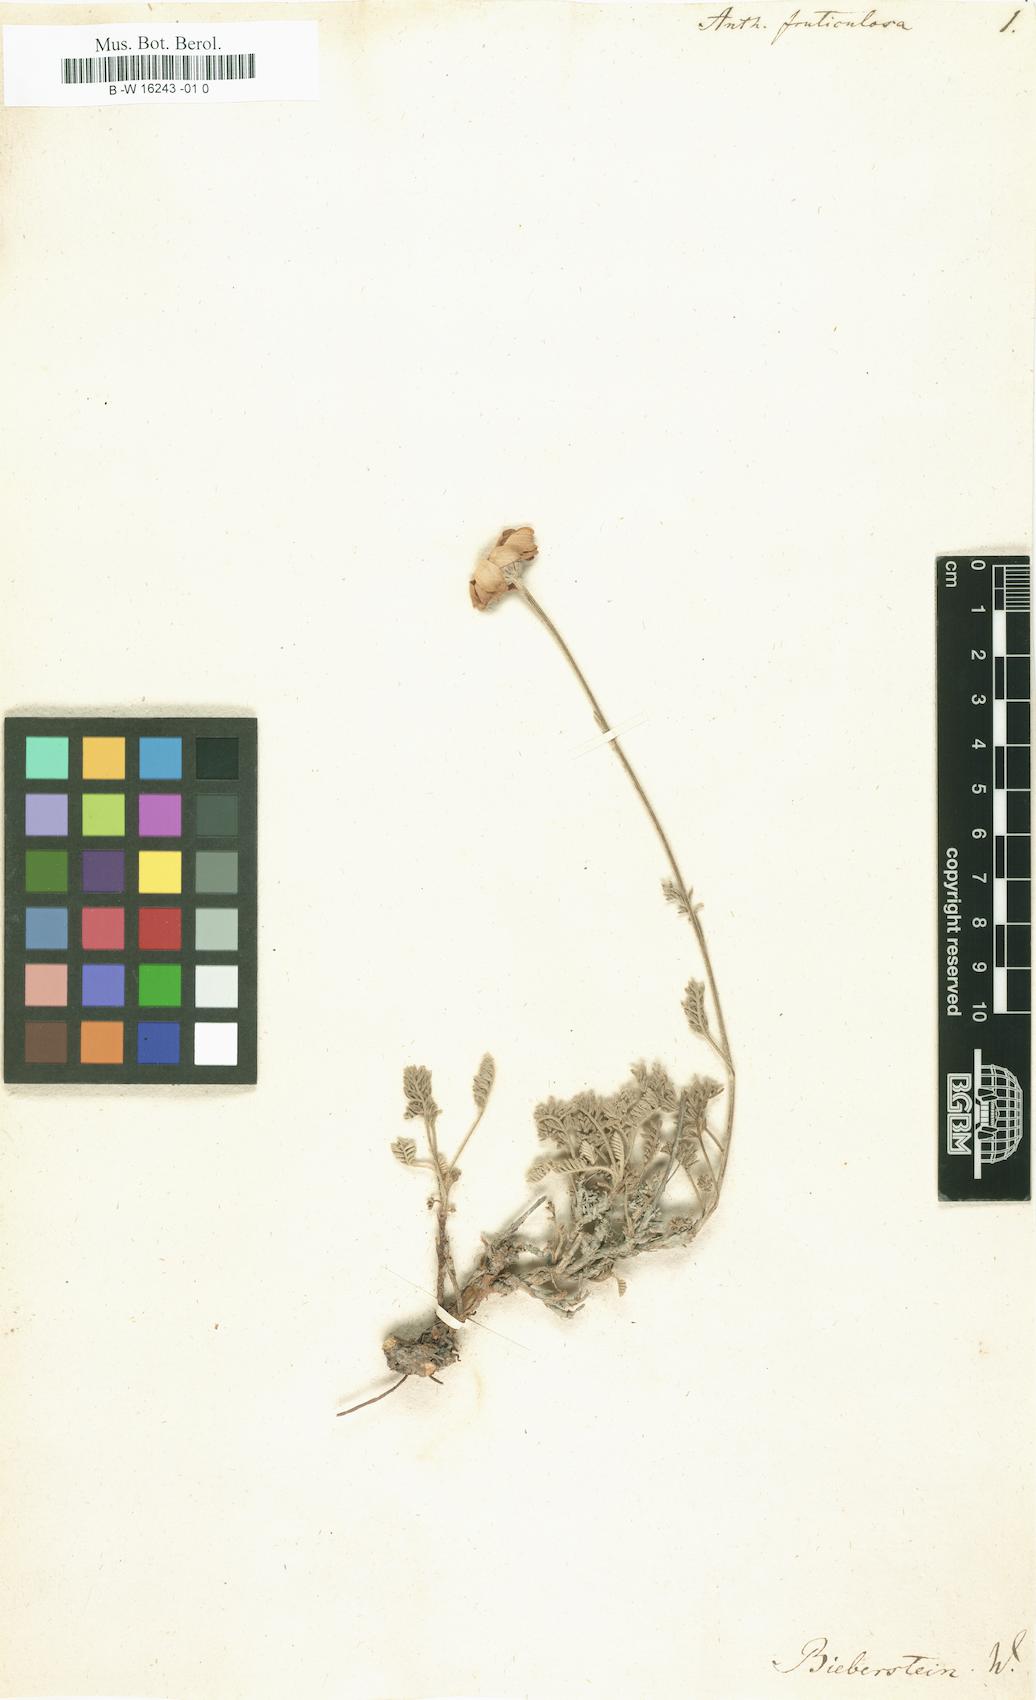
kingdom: Plantae
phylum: Tracheophyta
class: Magnoliopsida
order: Asterales
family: Asteraceae
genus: Archanthemis
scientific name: Archanthemis fruticulosa
